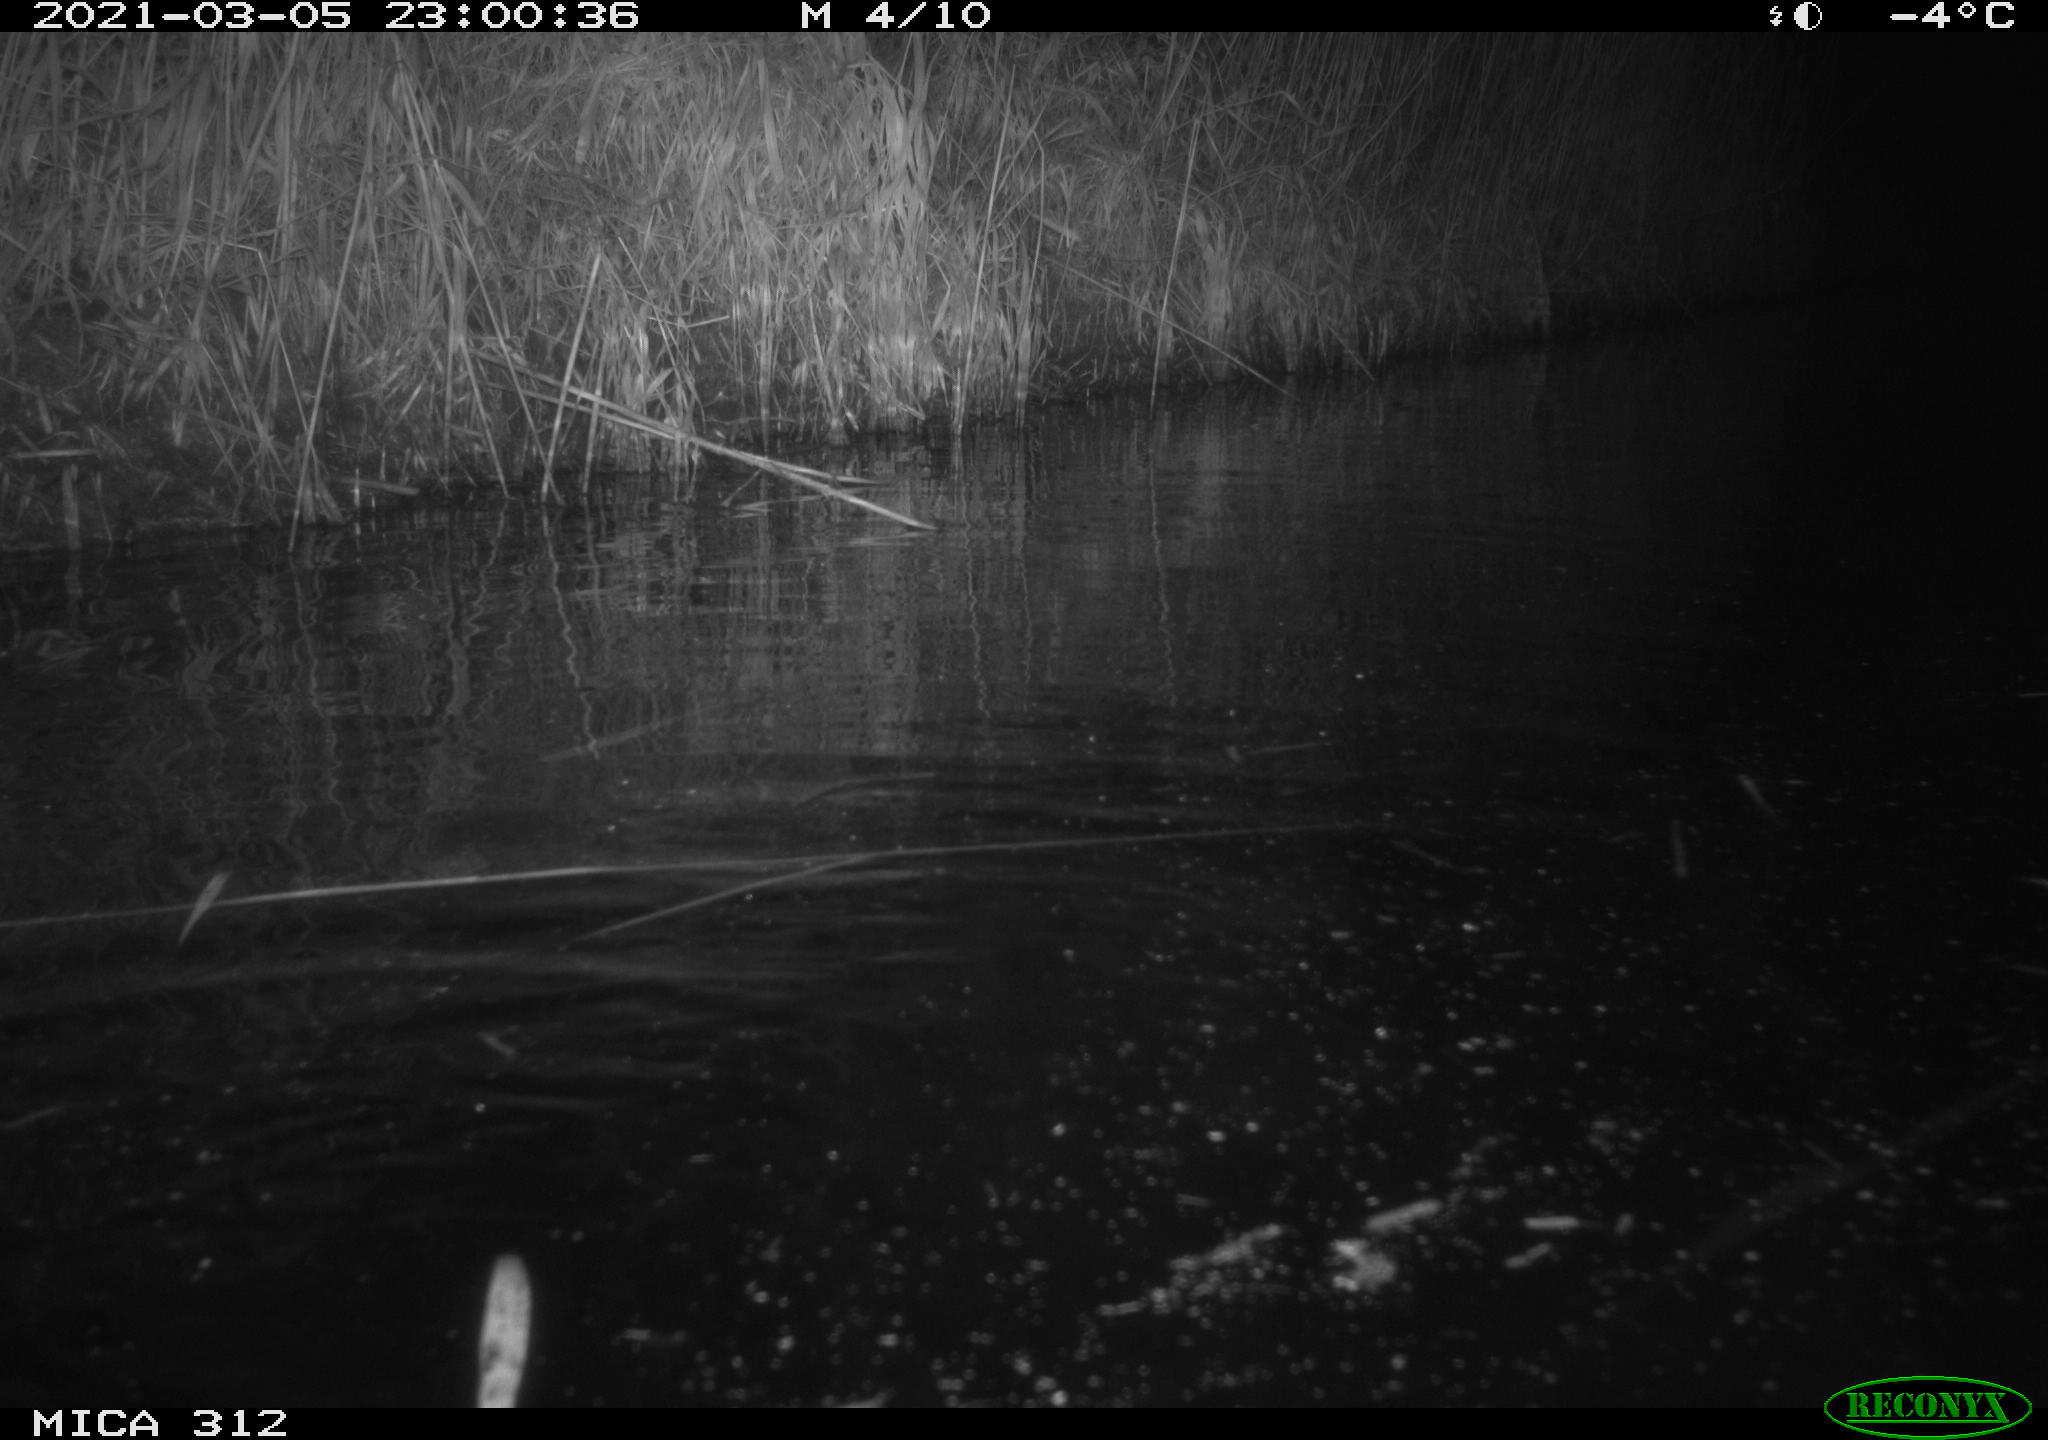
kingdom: Animalia
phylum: Chordata
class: Mammalia
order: Rodentia
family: Cricetidae
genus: Ondatra
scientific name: Ondatra zibethicus
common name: Muskrat
